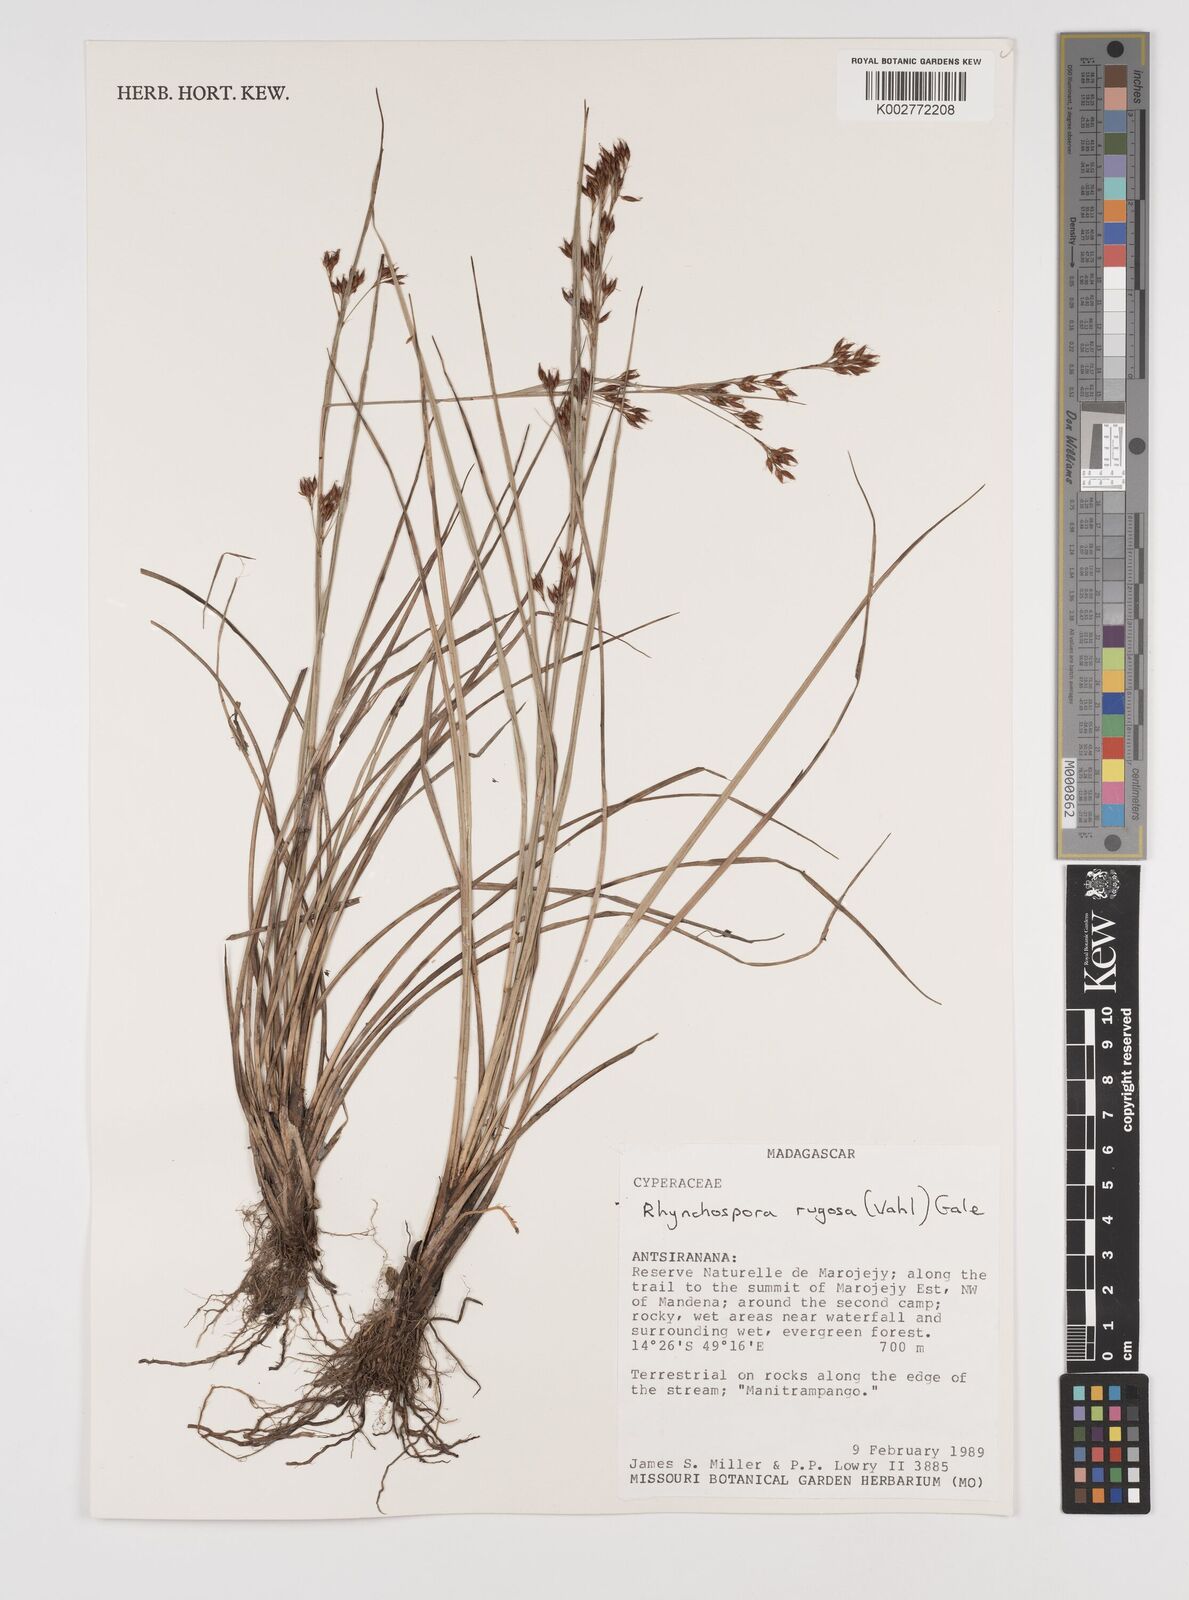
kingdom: Plantae
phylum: Tracheophyta
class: Liliopsida
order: Poales
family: Cyperaceae
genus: Rhynchospora
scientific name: Rhynchospora rugosa
